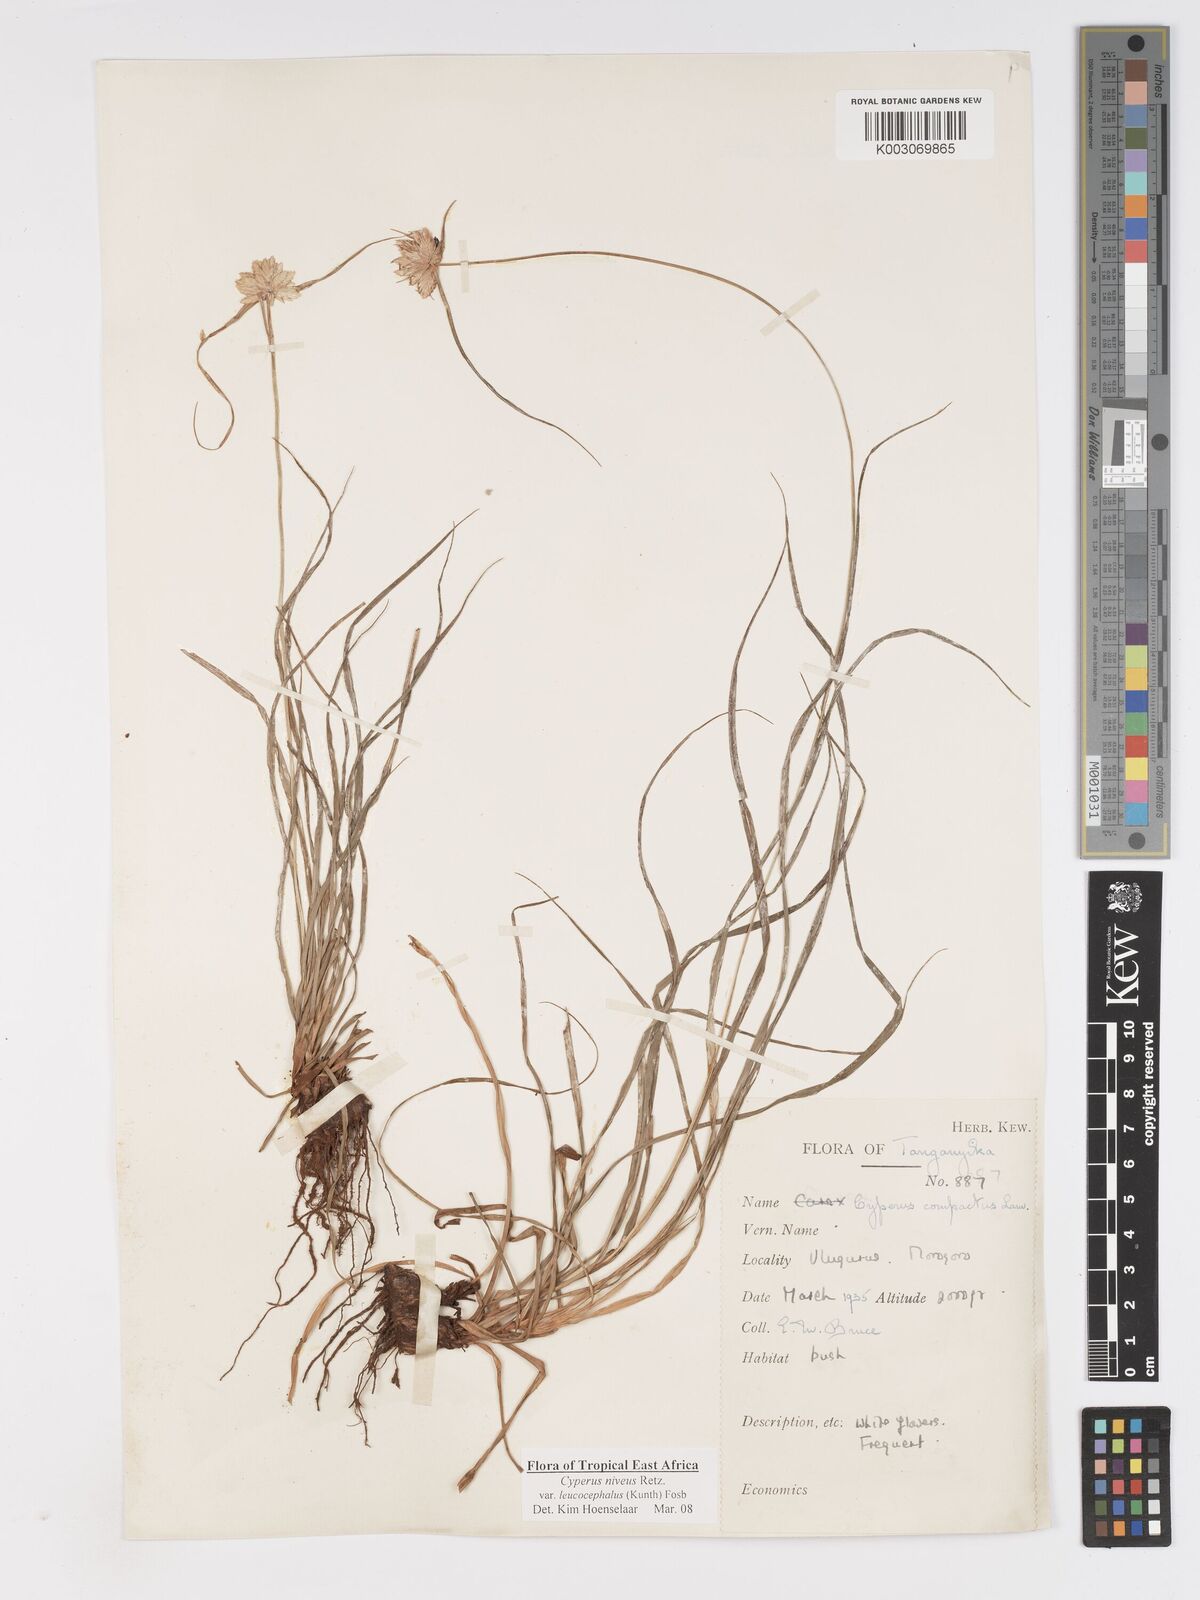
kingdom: Plantae
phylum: Tracheophyta
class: Liliopsida
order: Poales
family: Cyperaceae
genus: Cyperus
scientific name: Cyperus niveus
